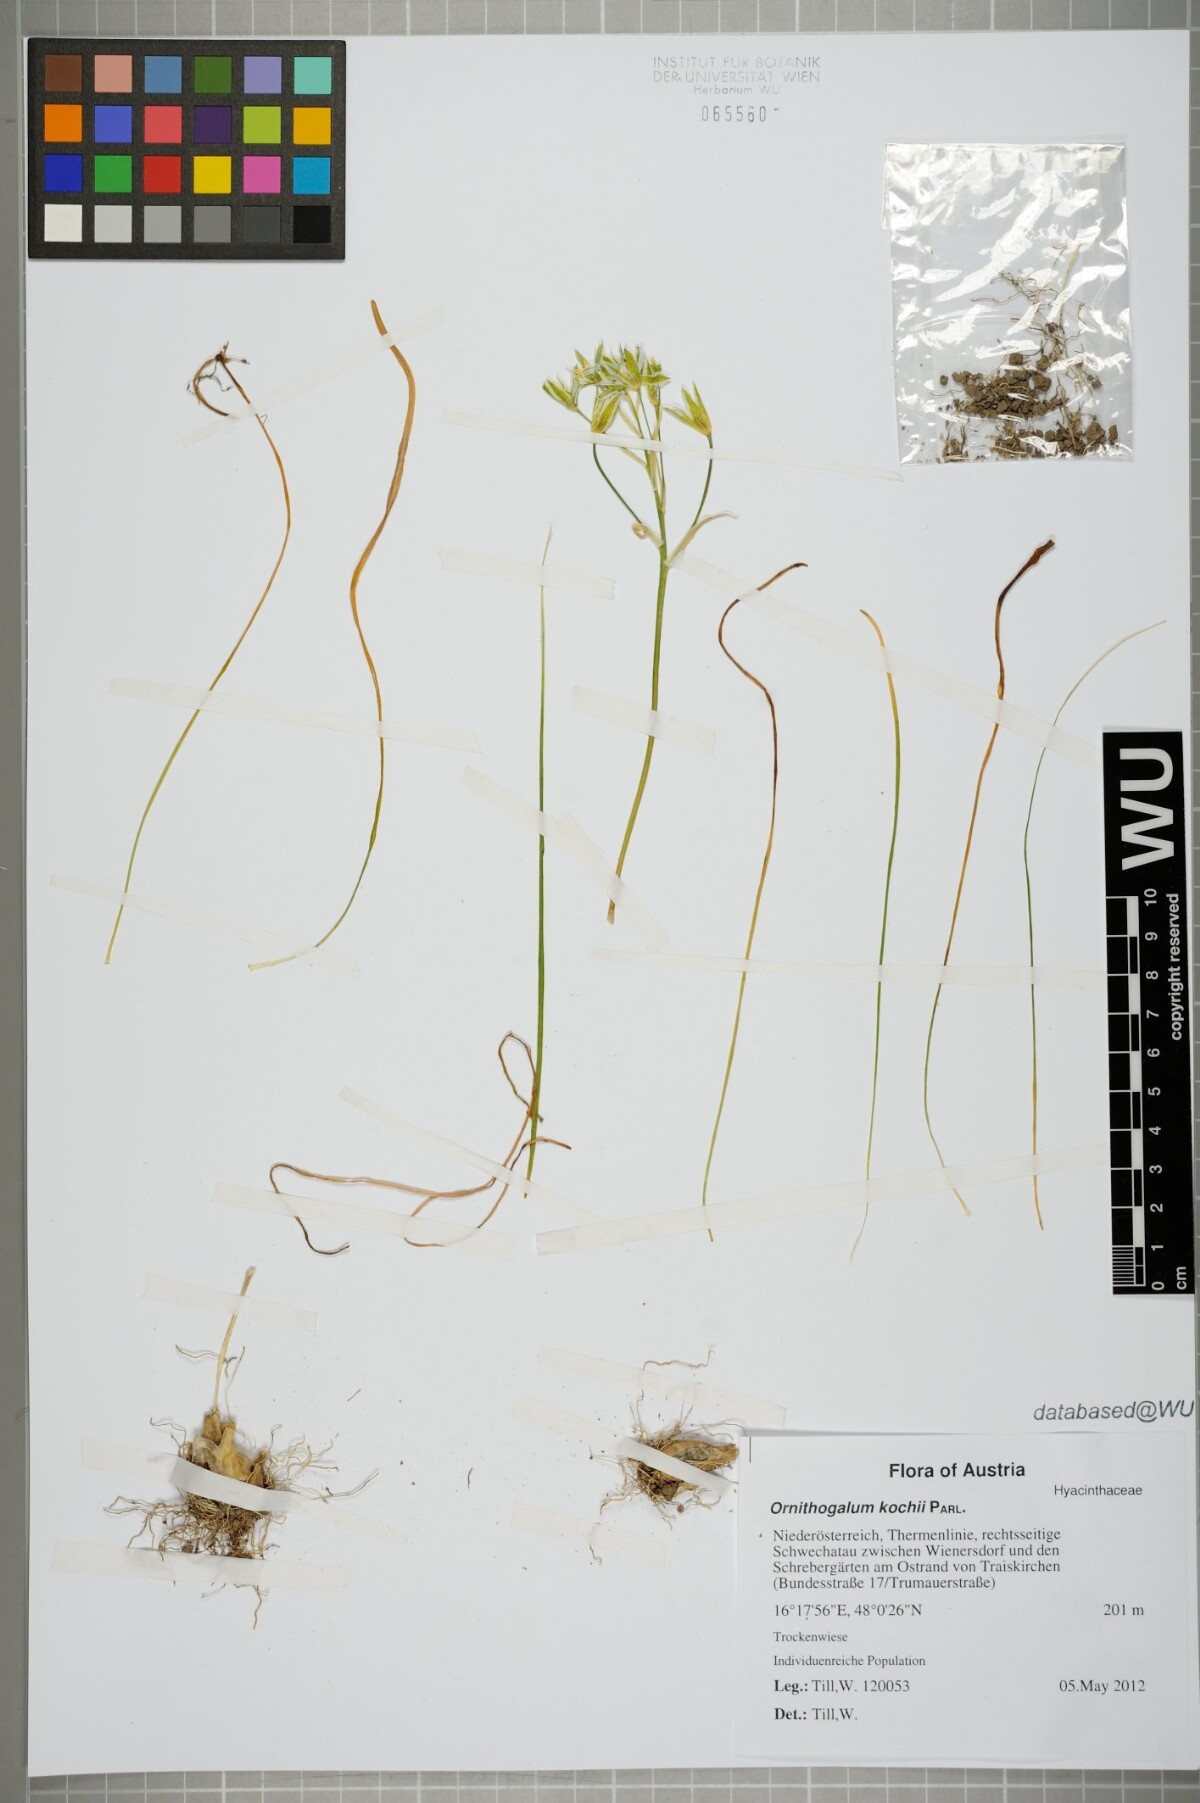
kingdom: Plantae
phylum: Tracheophyta
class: Liliopsida
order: Asparagales
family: Asparagaceae
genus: Ornithogalum
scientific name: Ornithogalum orthophyllum
